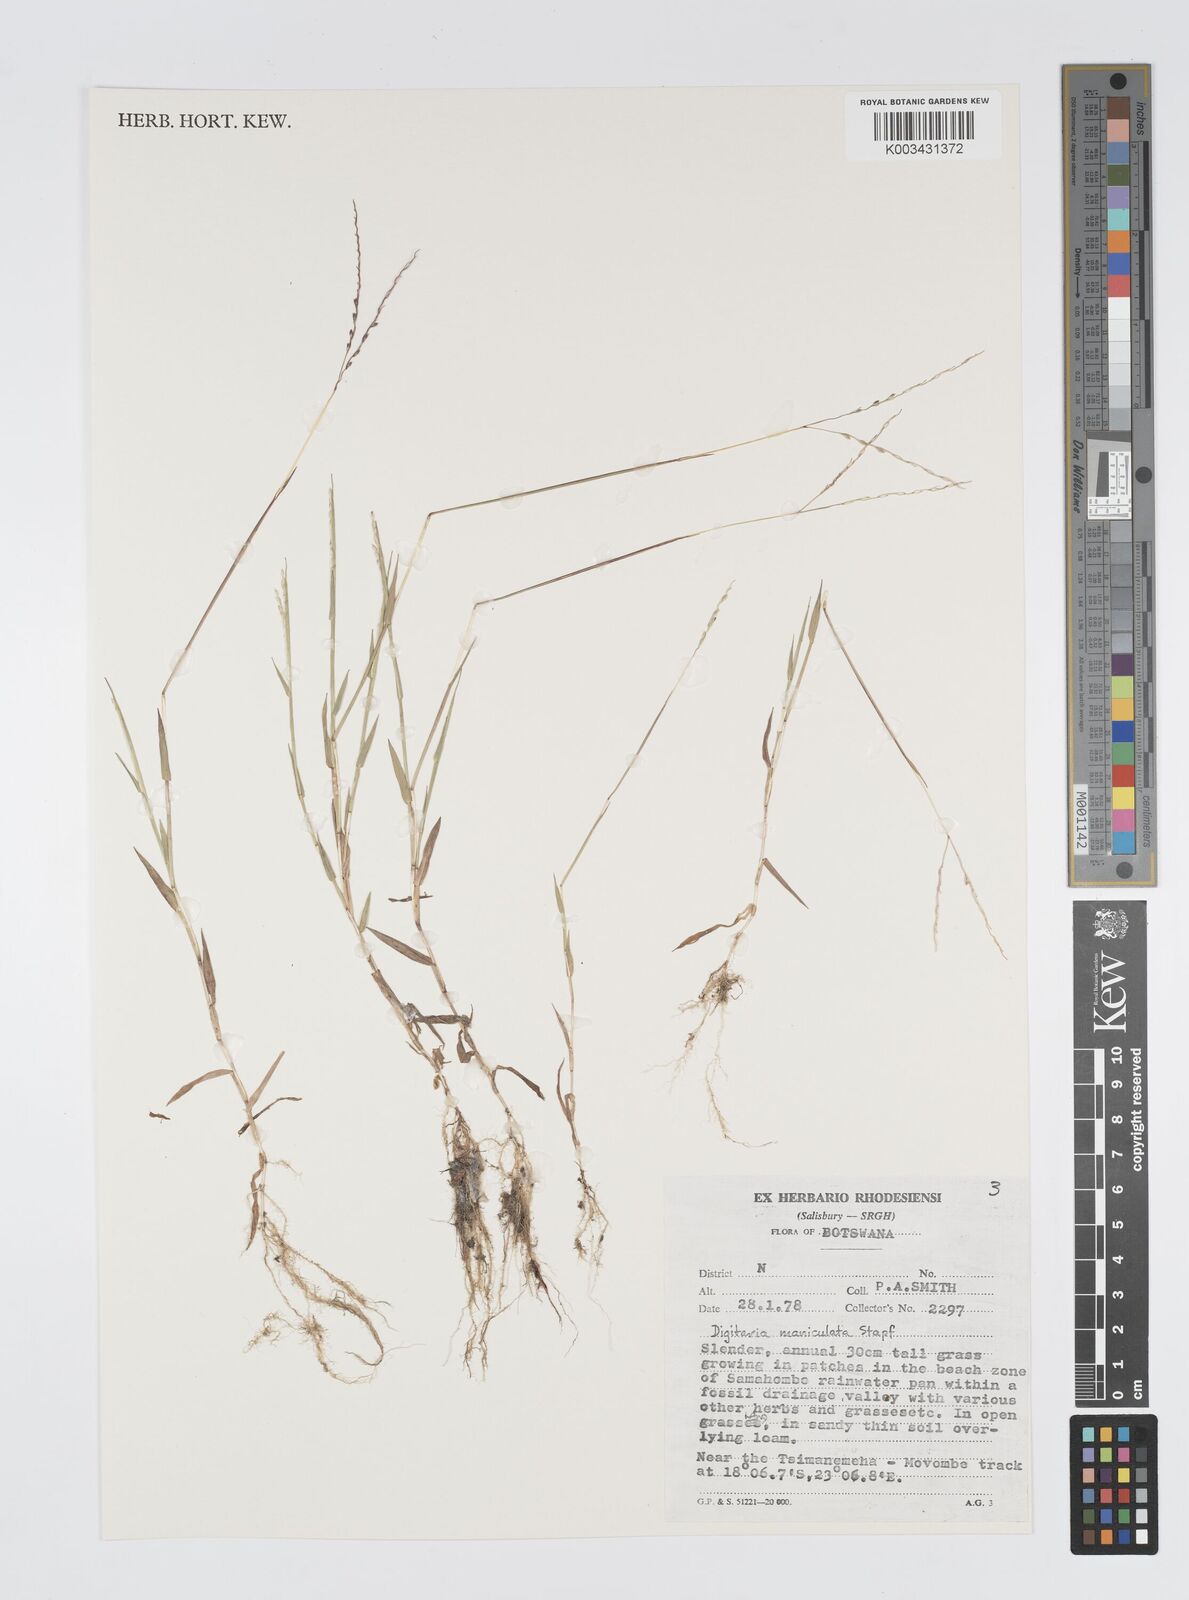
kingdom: Plantae
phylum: Tracheophyta
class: Liliopsida
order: Poales
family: Poaceae
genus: Digitaria
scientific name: Digitaria maniculata
